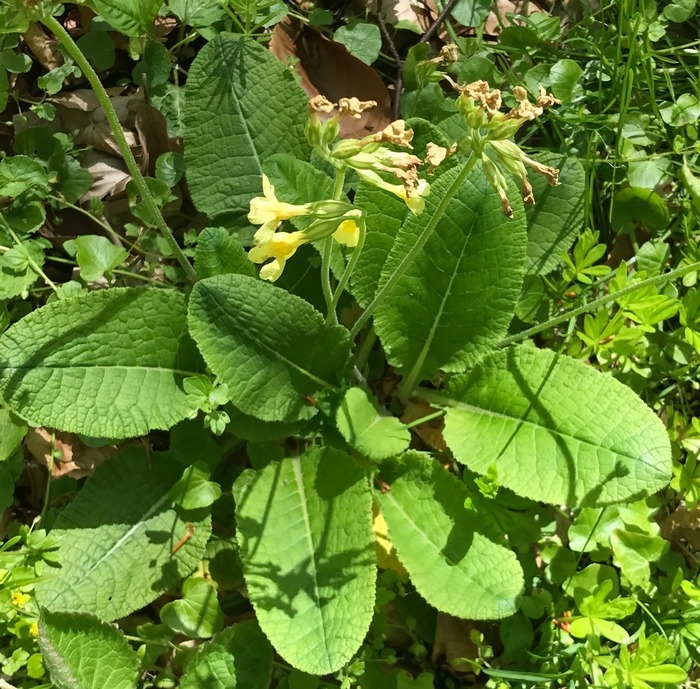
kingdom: Plantae
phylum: Tracheophyta
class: Magnoliopsida
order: Ericales
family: Primulaceae
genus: Primula
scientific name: Primula elatior
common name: Fladkravet kodriver
